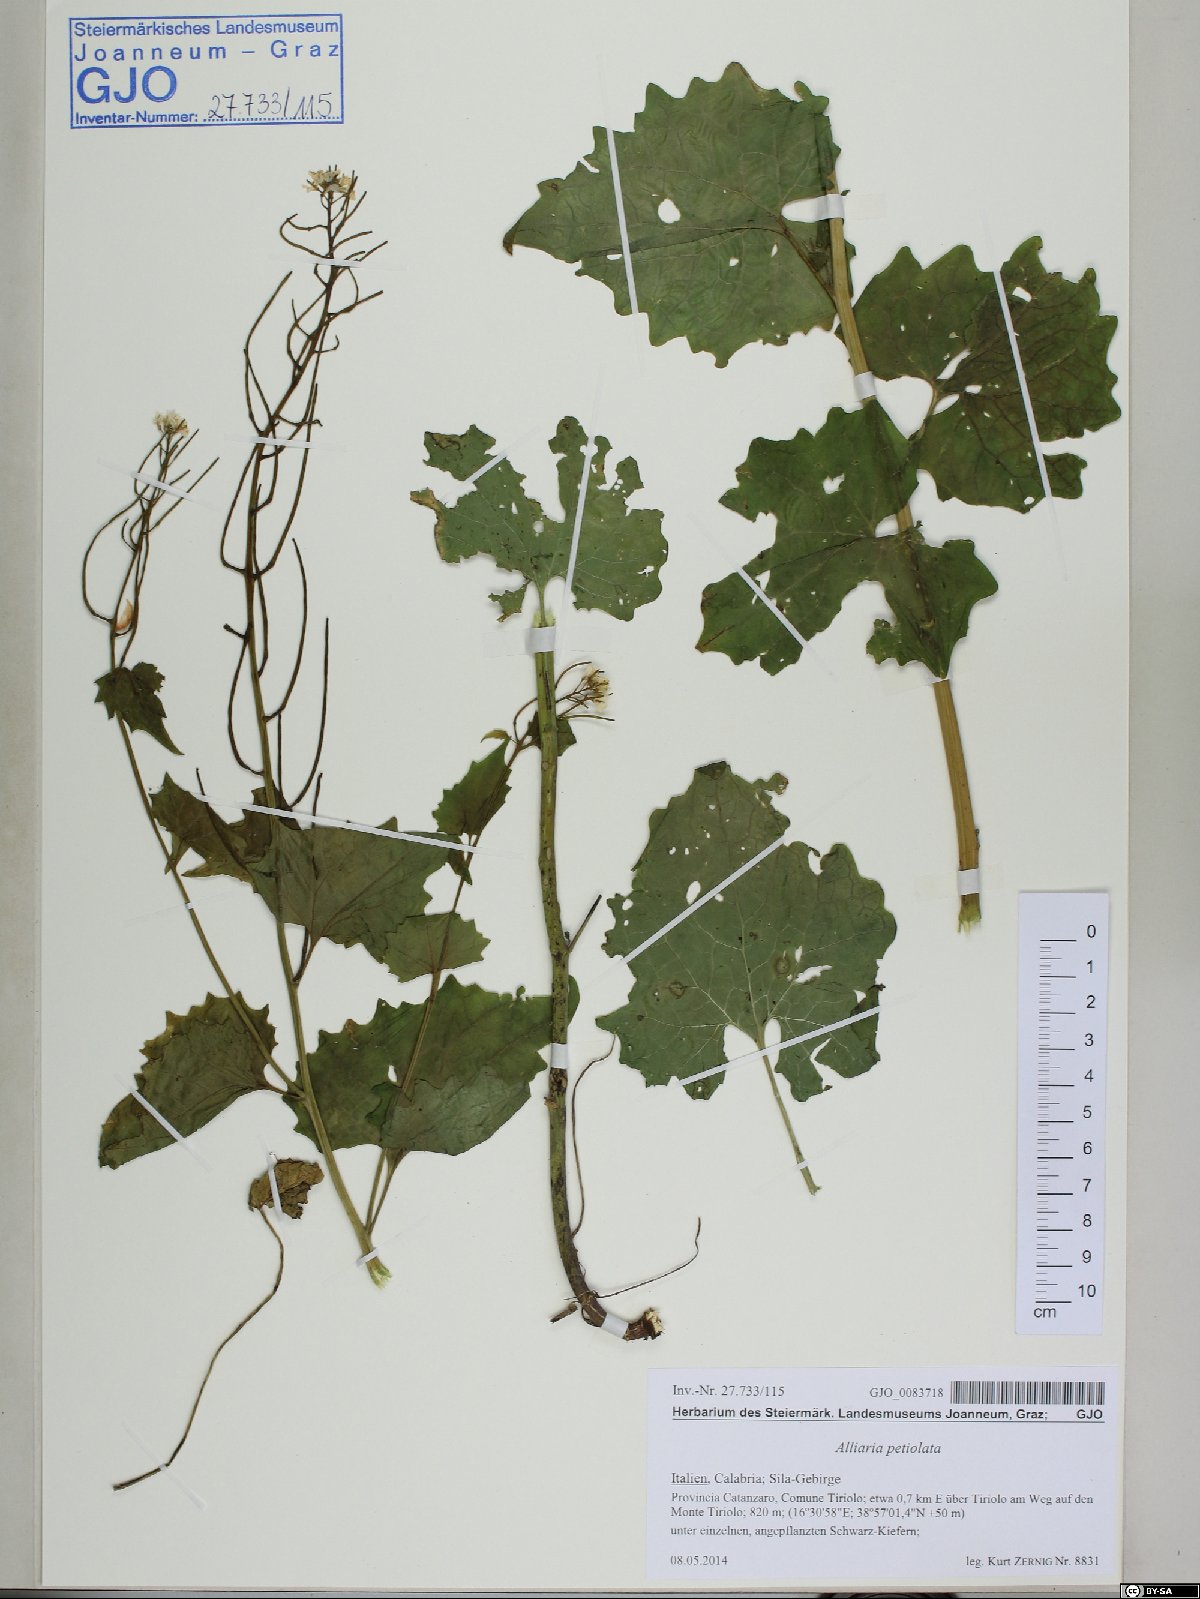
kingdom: Plantae
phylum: Tracheophyta
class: Magnoliopsida
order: Brassicales
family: Brassicaceae
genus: Alliaria
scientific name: Alliaria petiolata
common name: Garlic mustard
